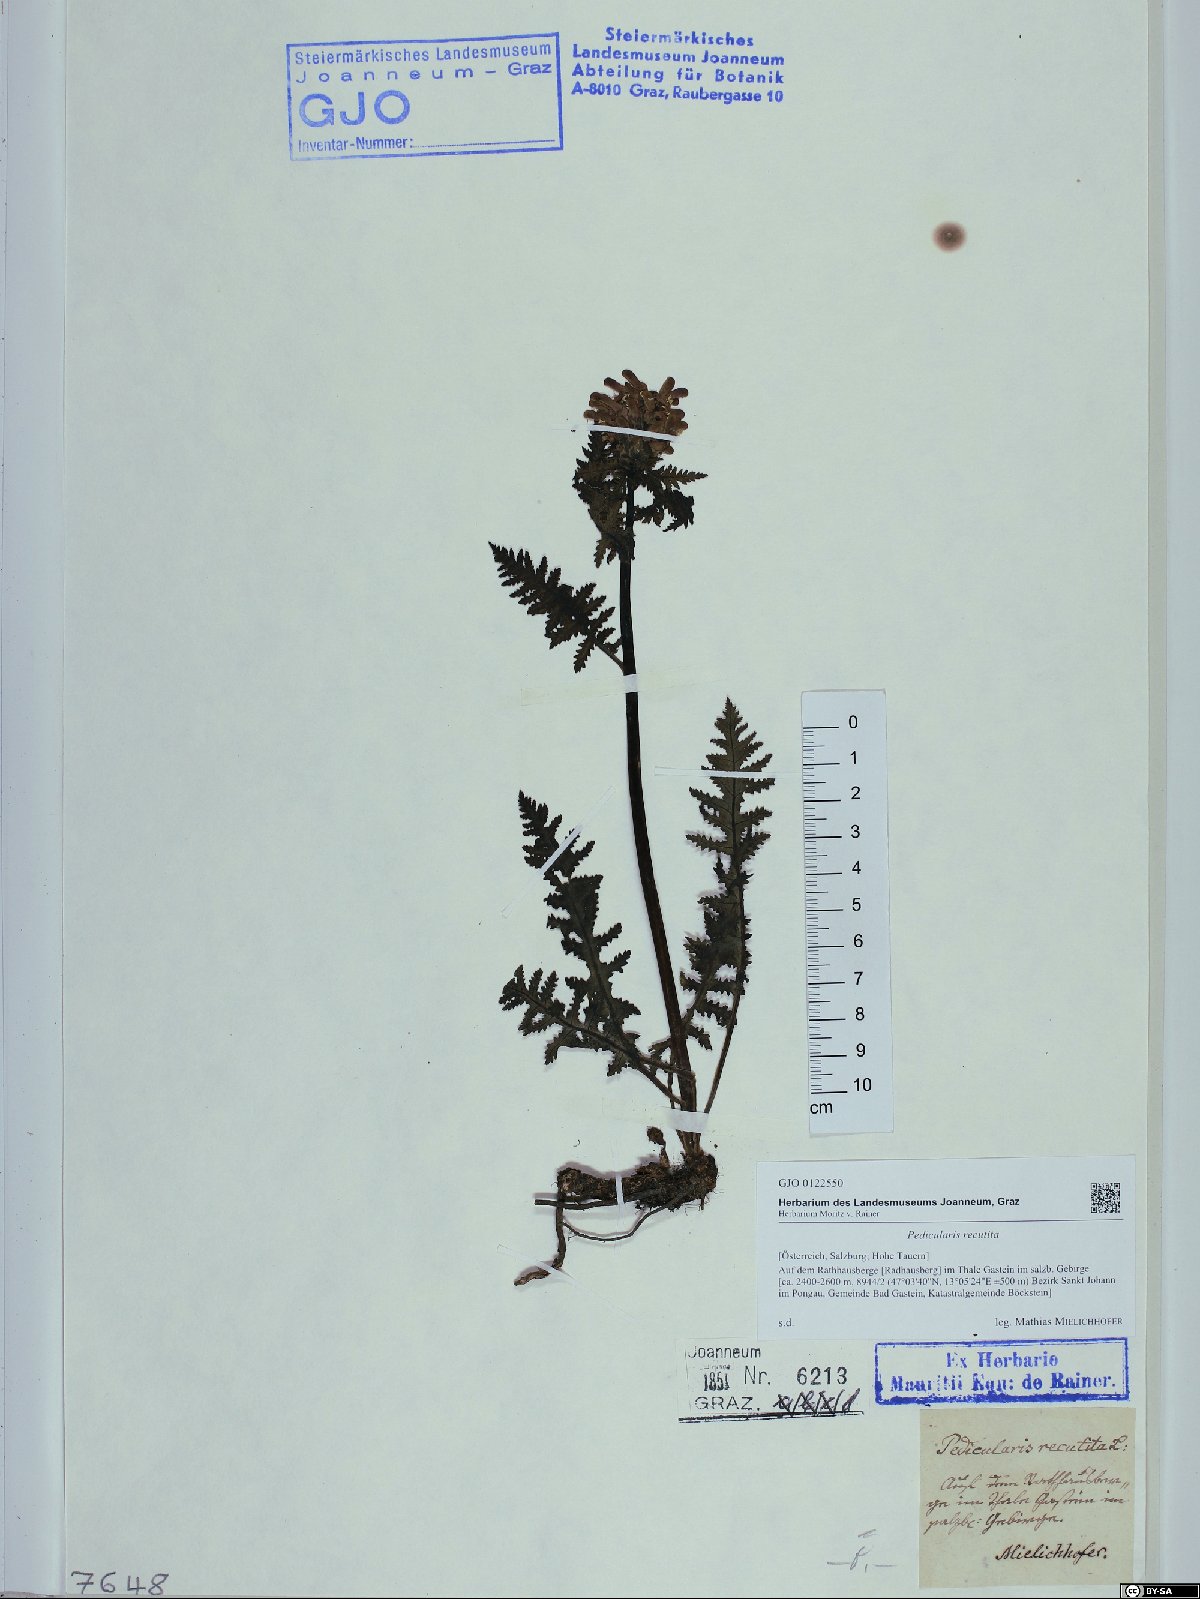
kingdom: Plantae
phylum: Tracheophyta
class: Magnoliopsida
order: Lamiales
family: Orobanchaceae
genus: Pedicularis
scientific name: Pedicularis recutita
